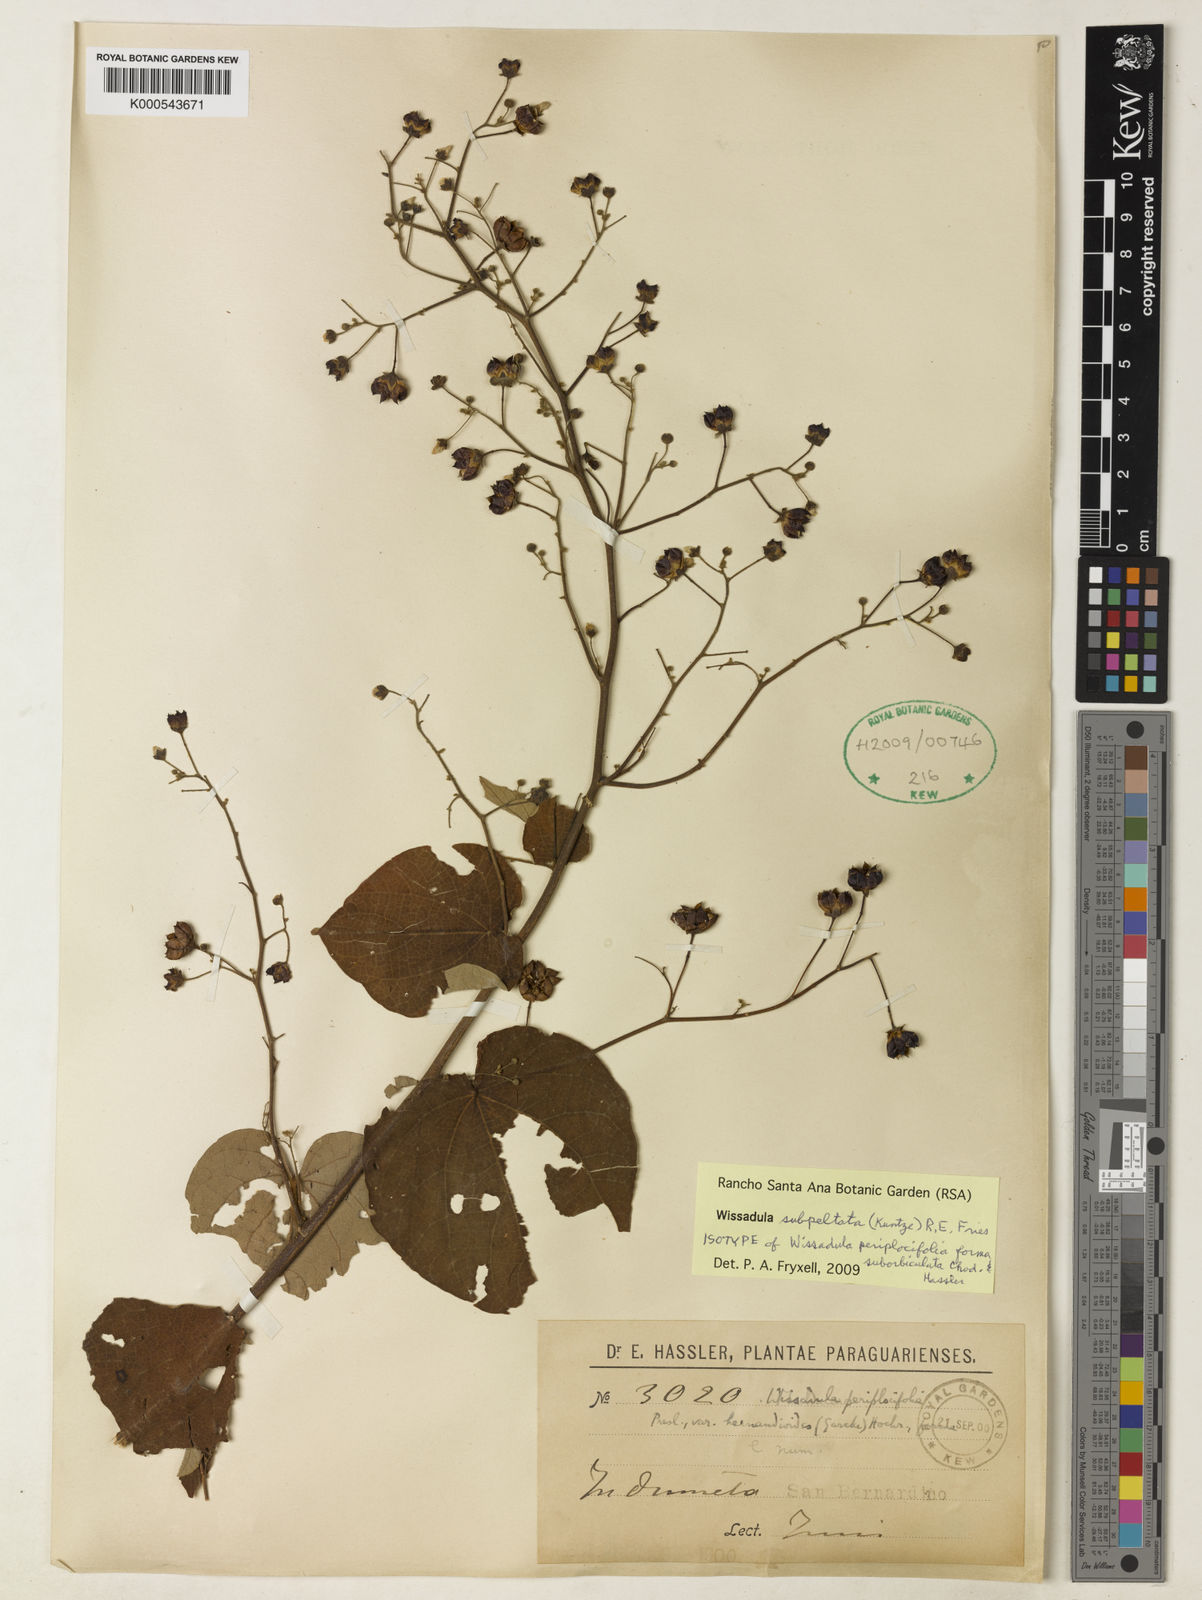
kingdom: Plantae
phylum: Tracheophyta
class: Magnoliopsida
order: Malvales
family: Malvaceae
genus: Wissadula
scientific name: Wissadula subpeltata
